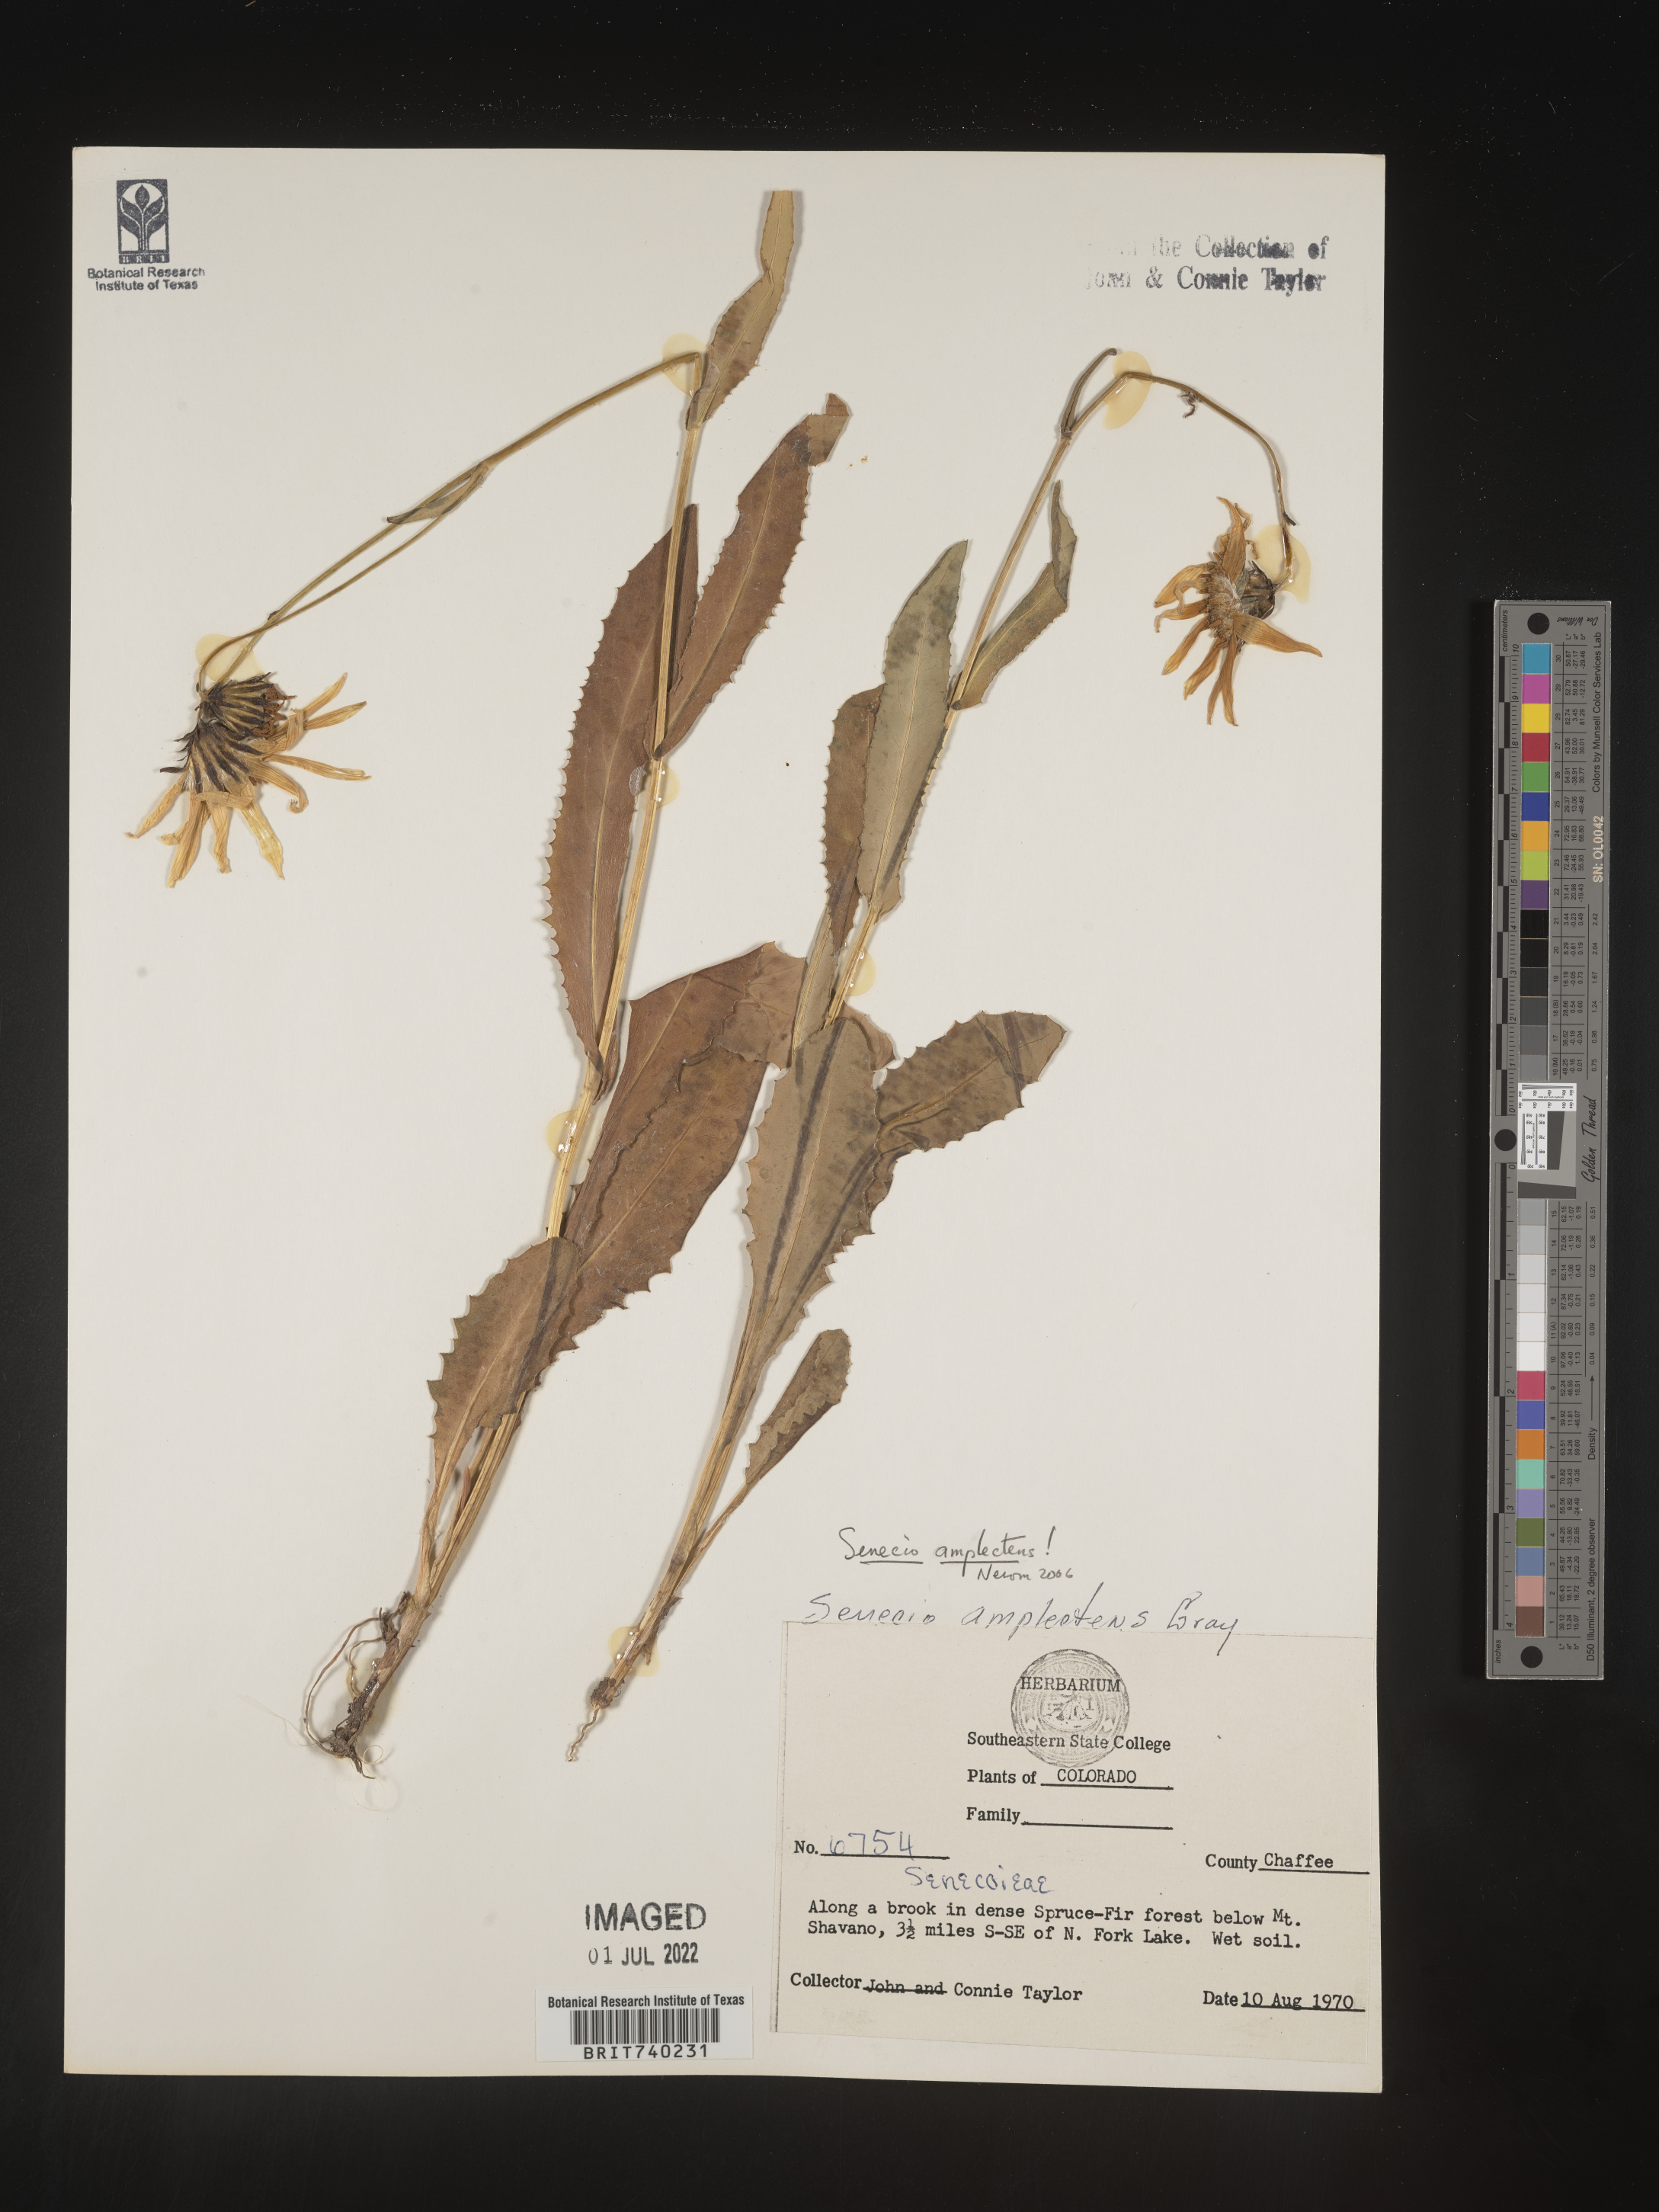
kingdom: Plantae
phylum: Tracheophyta
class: Magnoliopsida
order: Asterales
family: Asteraceae
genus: Senecio
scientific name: Senecio amplectens
